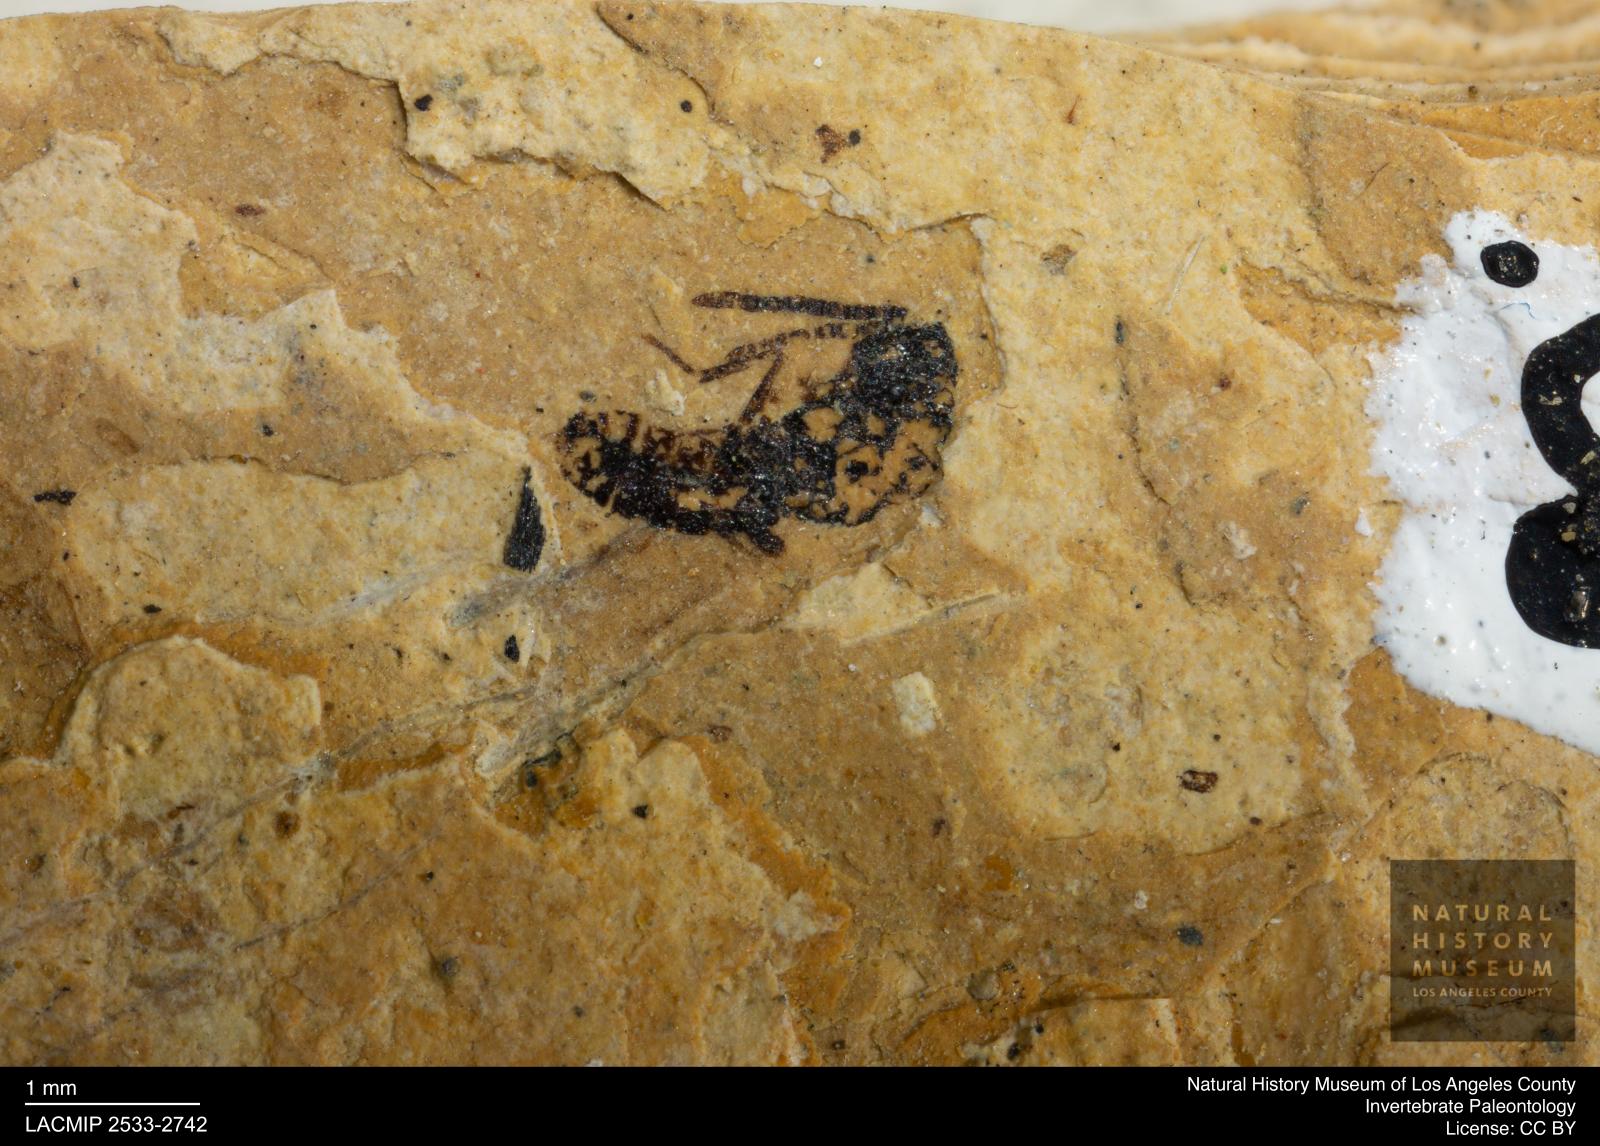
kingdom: Animalia
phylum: Arthropoda
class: Insecta
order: Hymenoptera
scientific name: Hymenoptera
